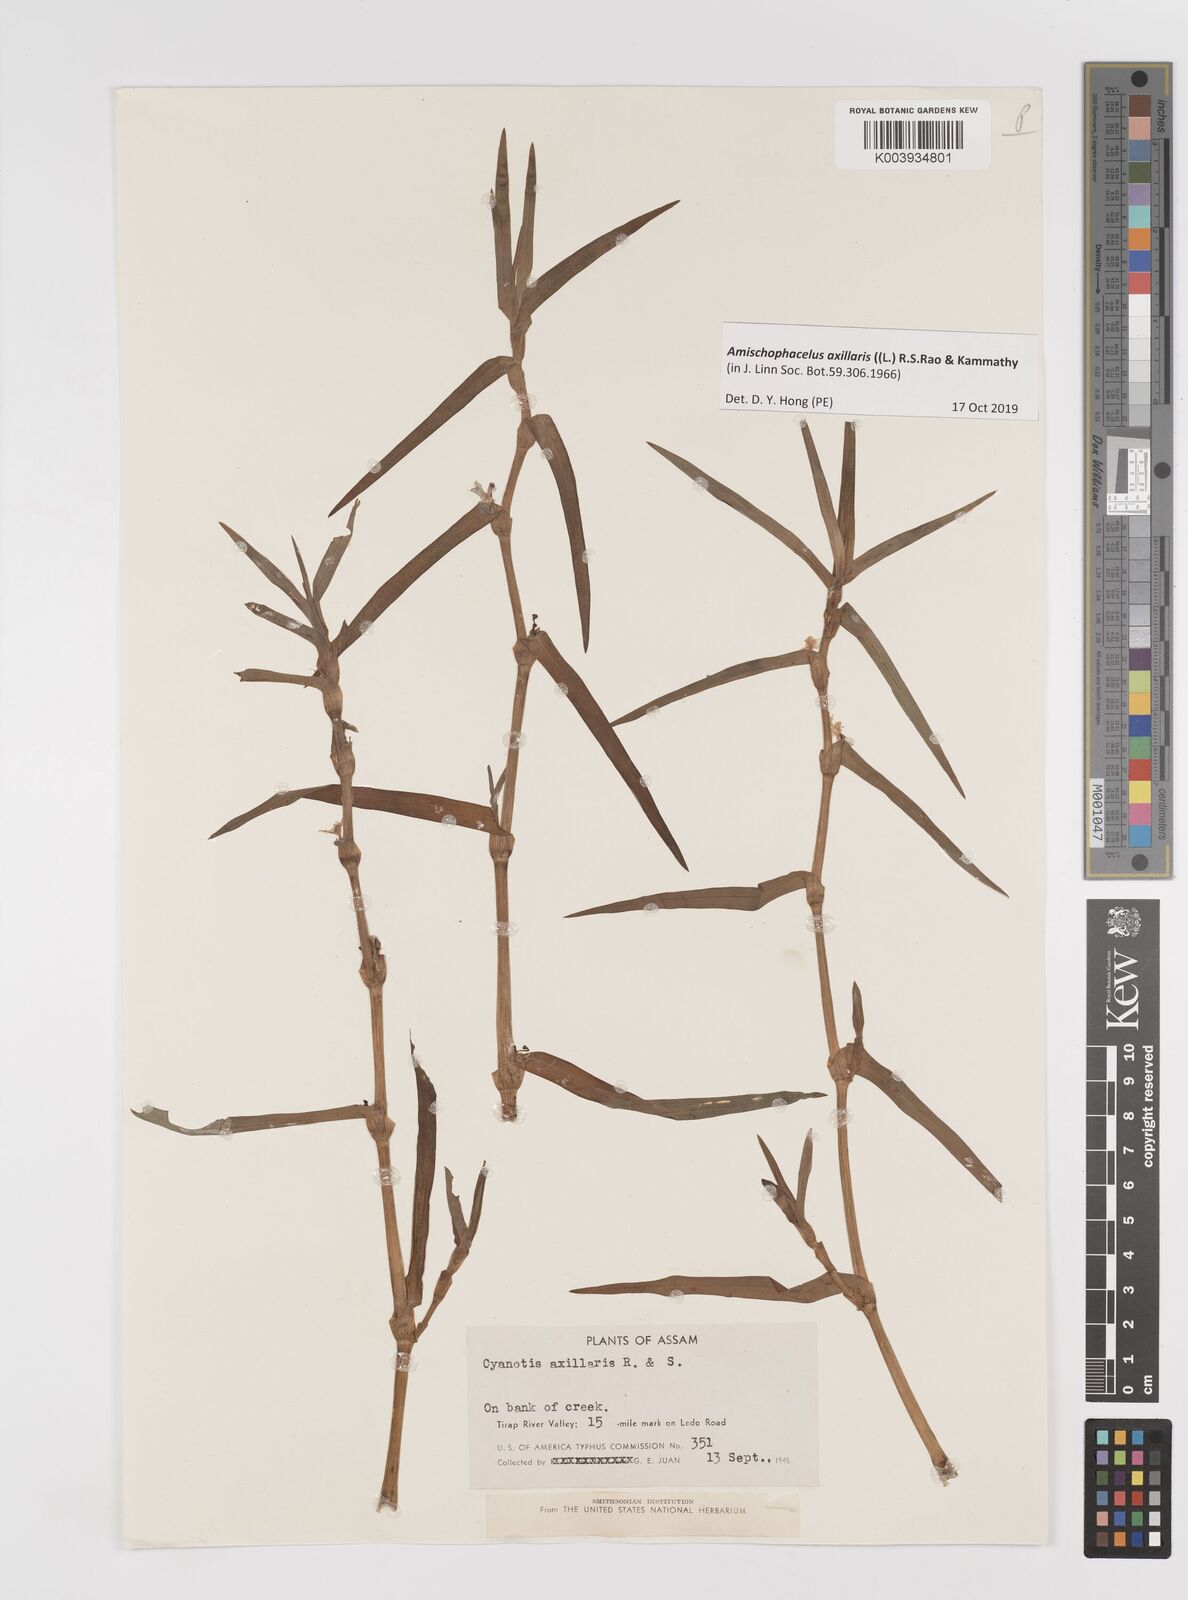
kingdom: Plantae
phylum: Tracheophyta
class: Liliopsida
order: Commelinales
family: Commelinaceae
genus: Cyanotis
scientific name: Cyanotis axillaris
